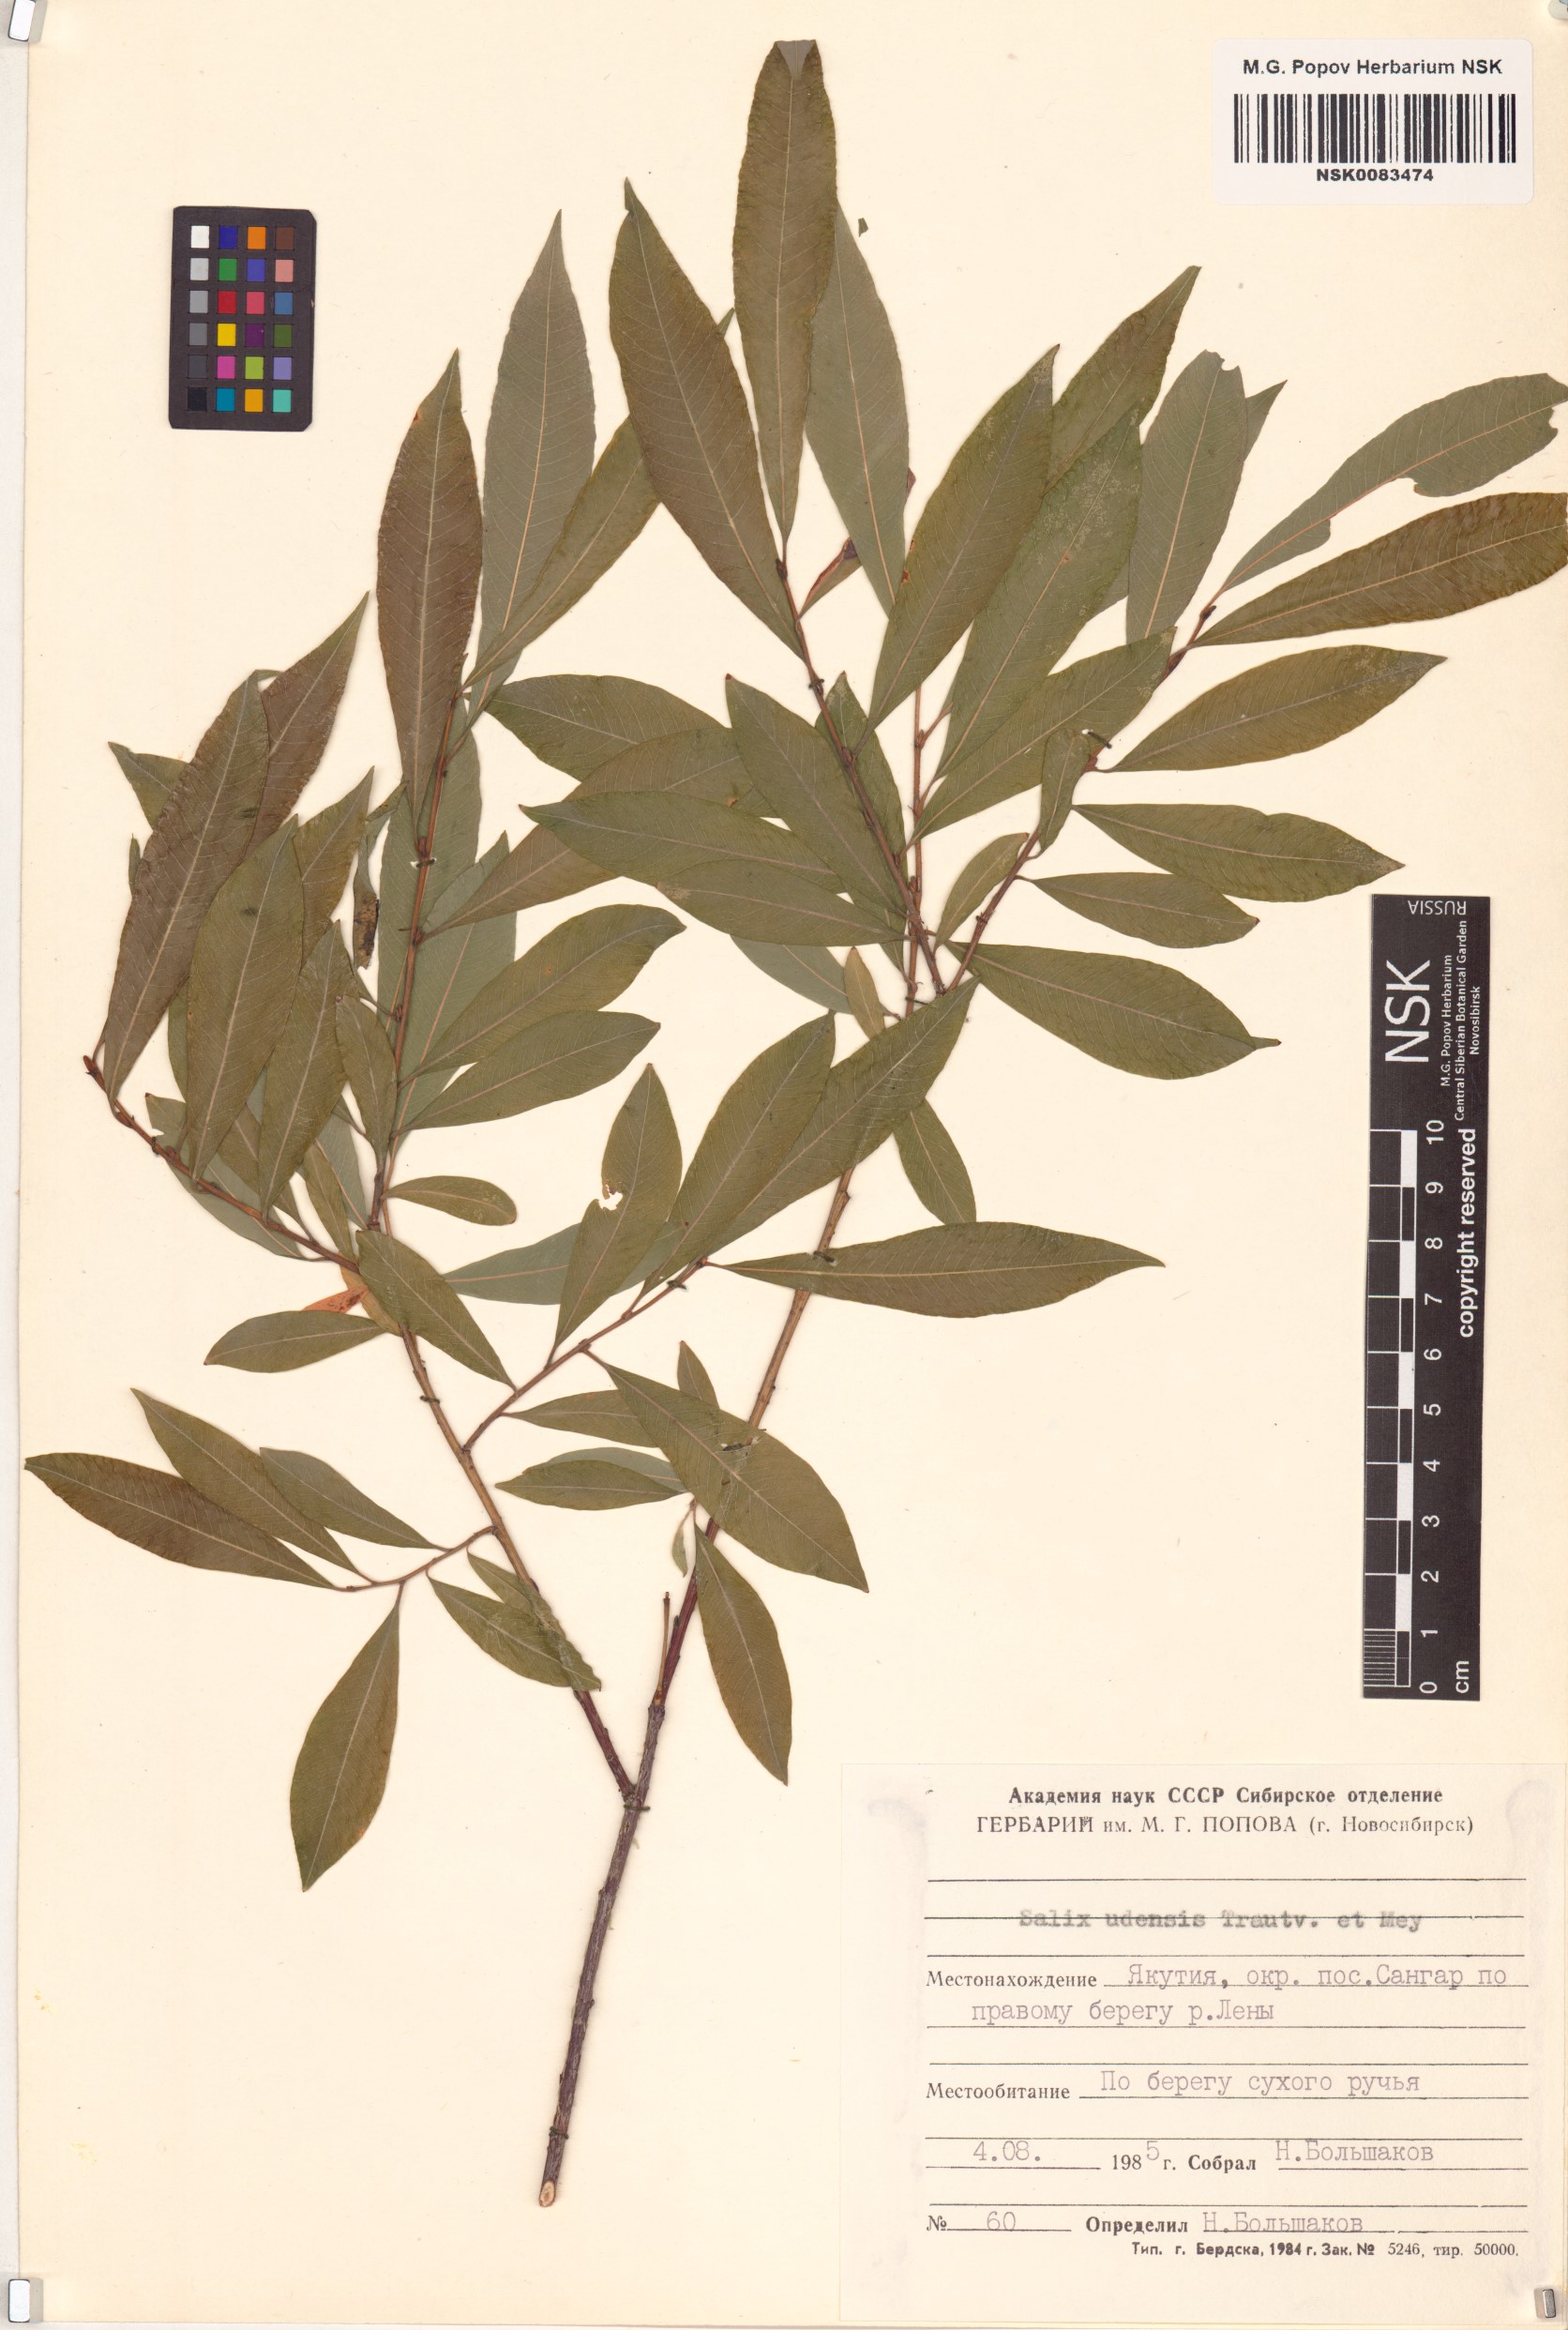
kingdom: Plantae
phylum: Tracheophyta
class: Magnoliopsida
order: Malpighiales
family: Salicaceae
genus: Salix
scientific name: Salix udensis
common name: Sachalin willow
